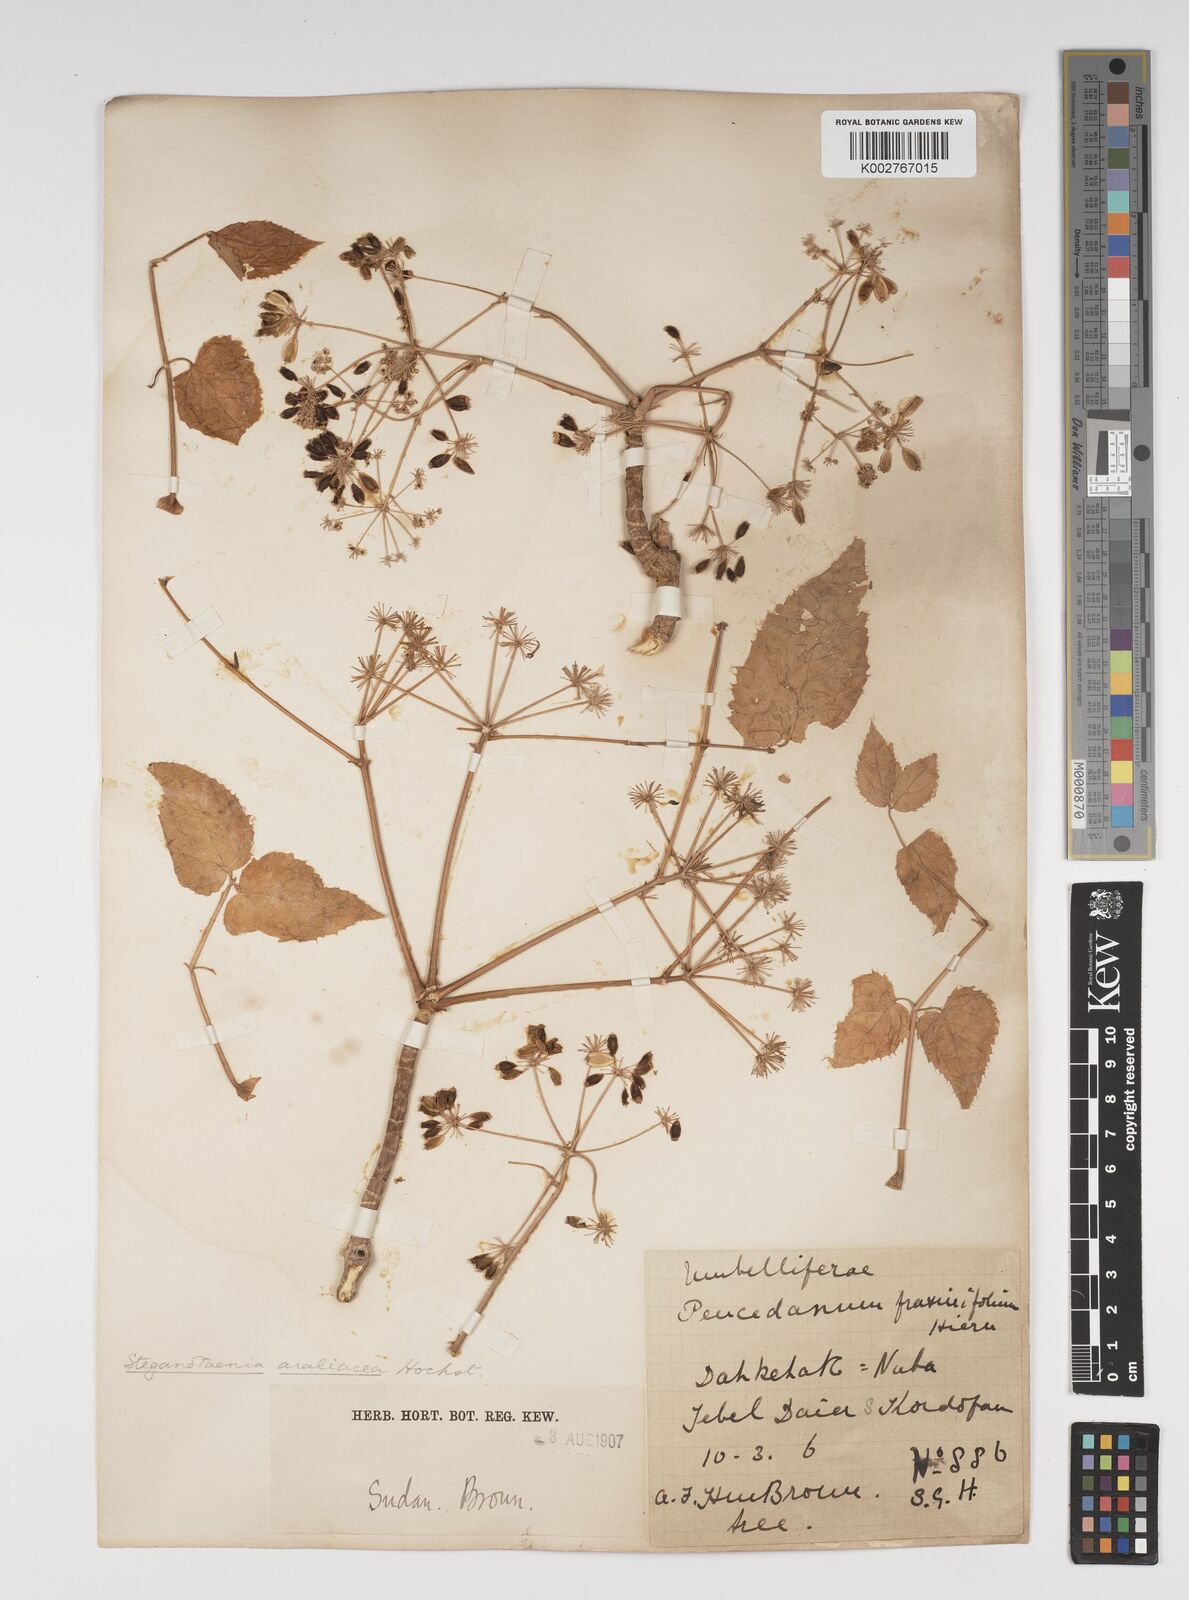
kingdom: Plantae
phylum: Tracheophyta
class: Magnoliopsida
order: Apiales
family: Apiaceae
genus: Steganotaenia
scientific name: Steganotaenia
